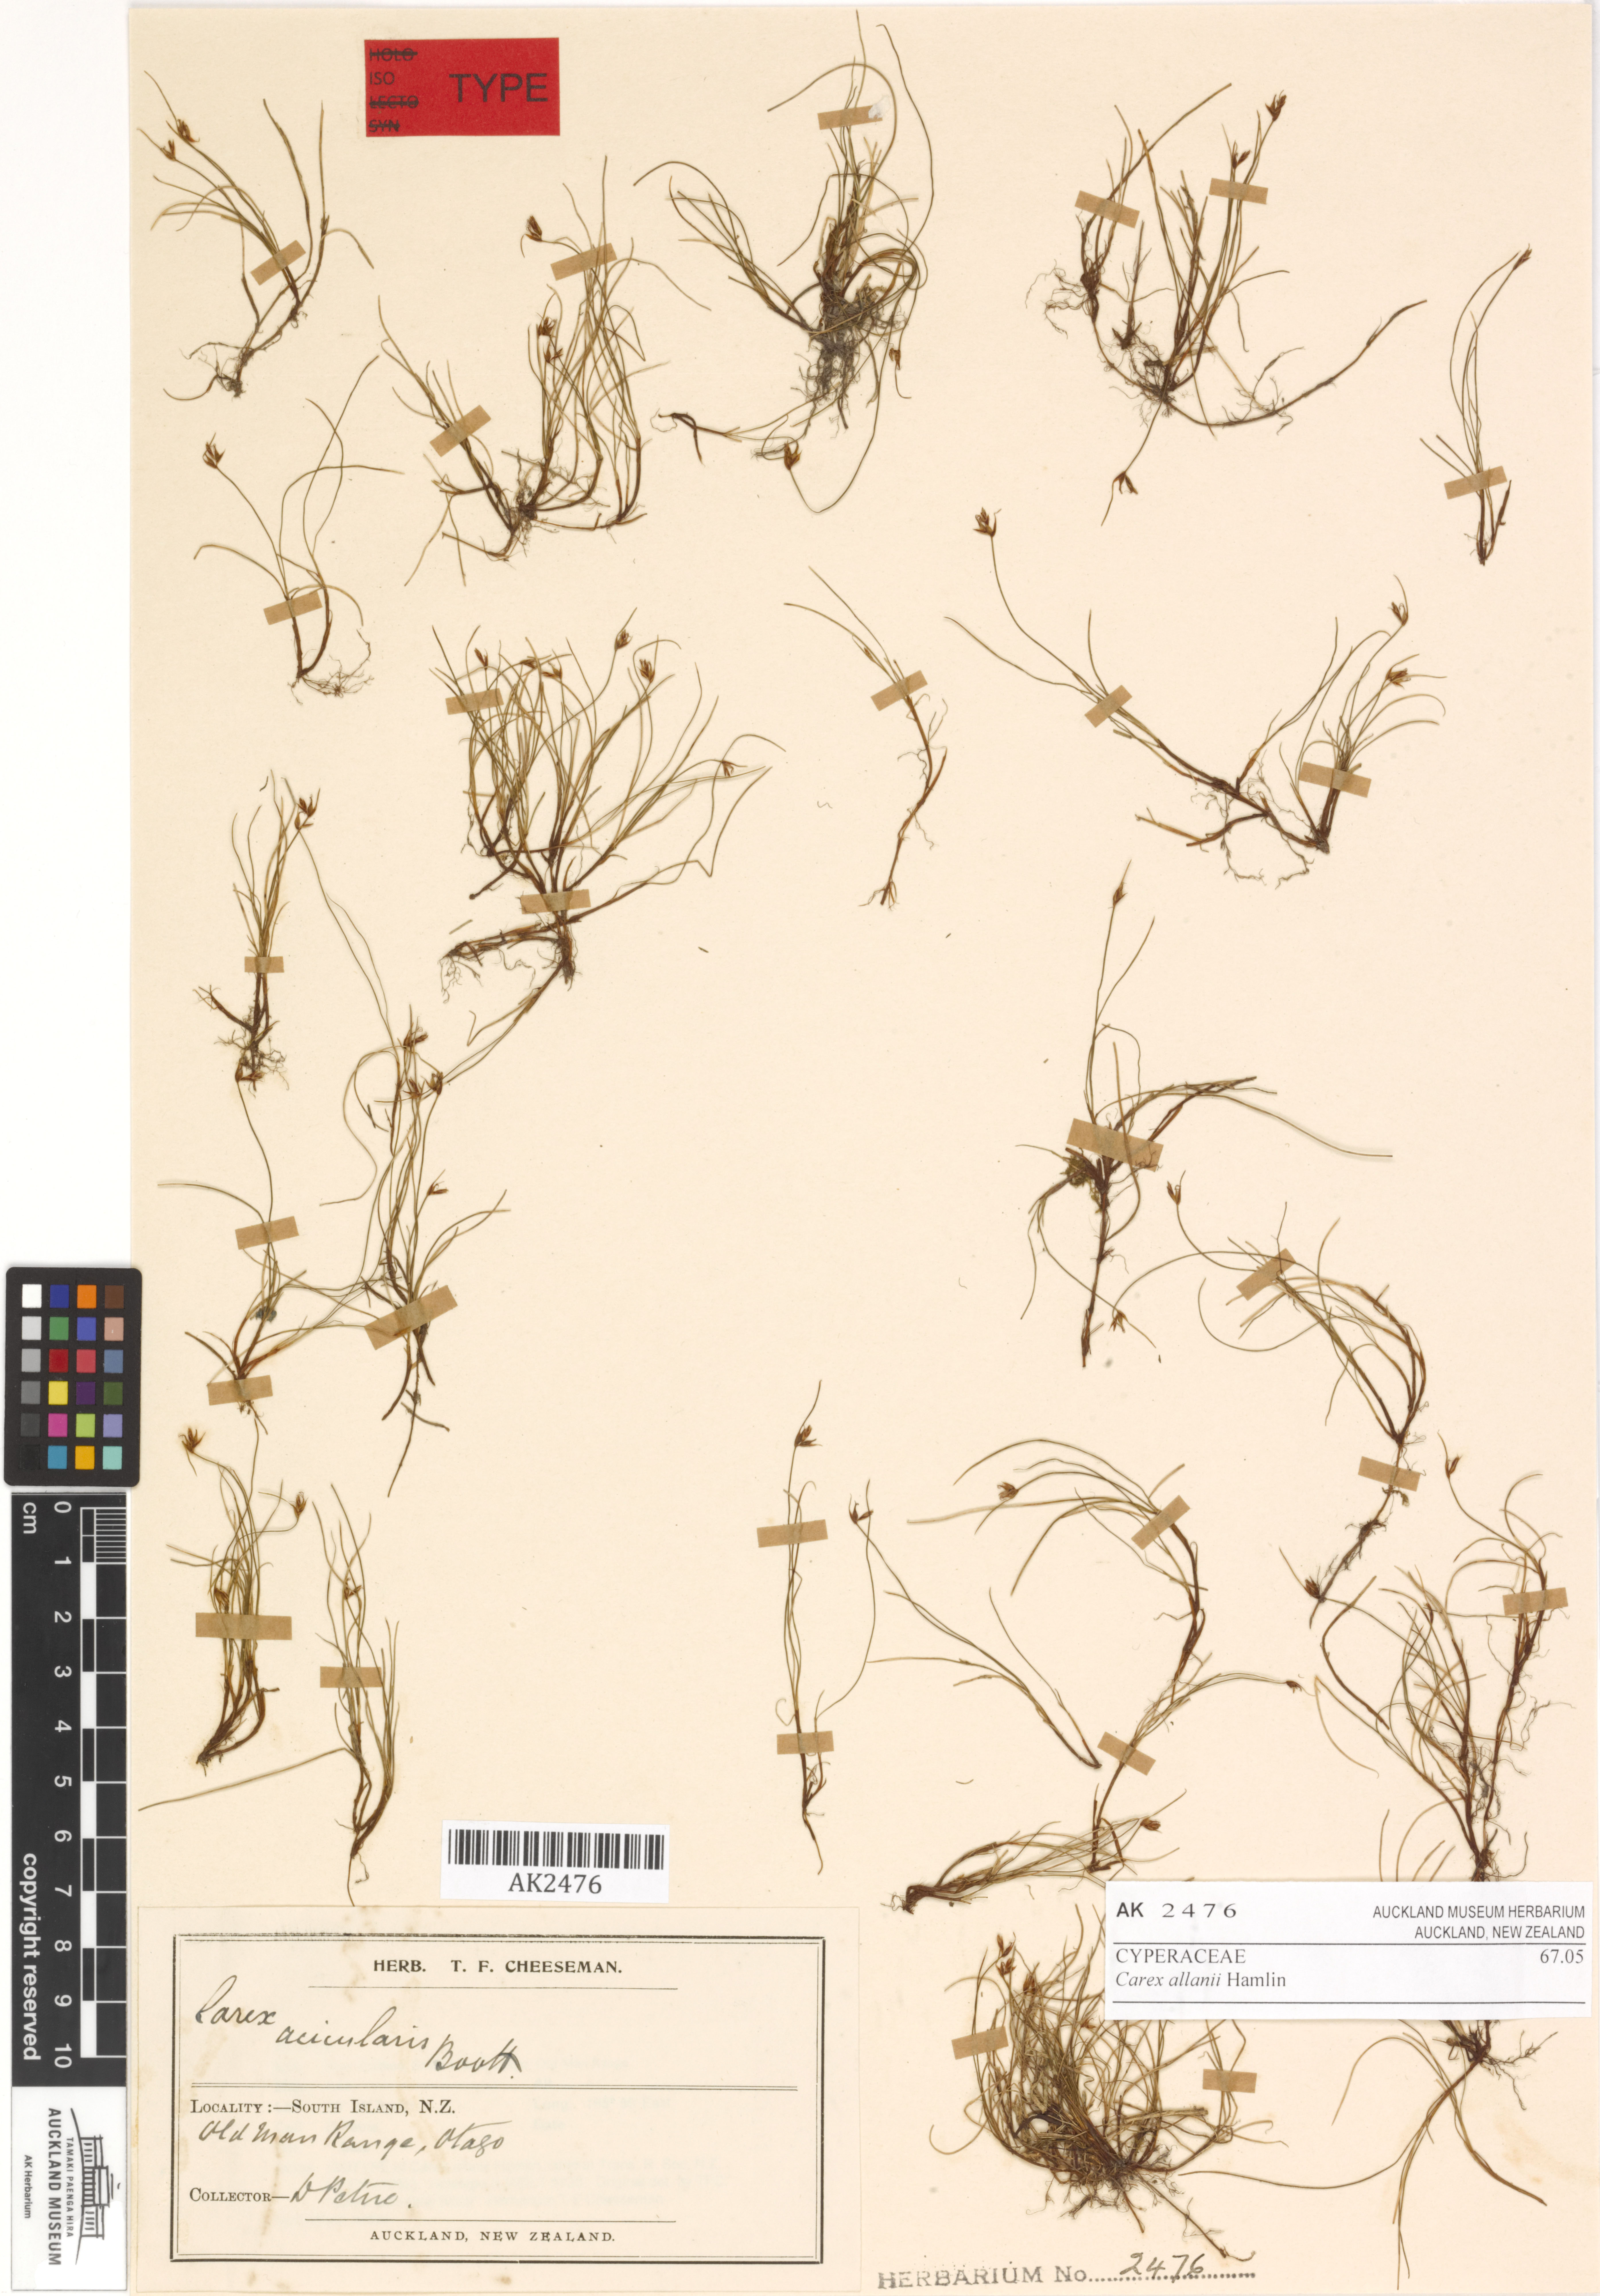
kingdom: Plantae
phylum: Tracheophyta
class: Liliopsida
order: Poales
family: Cyperaceae
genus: Carex
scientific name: Carex allanii
